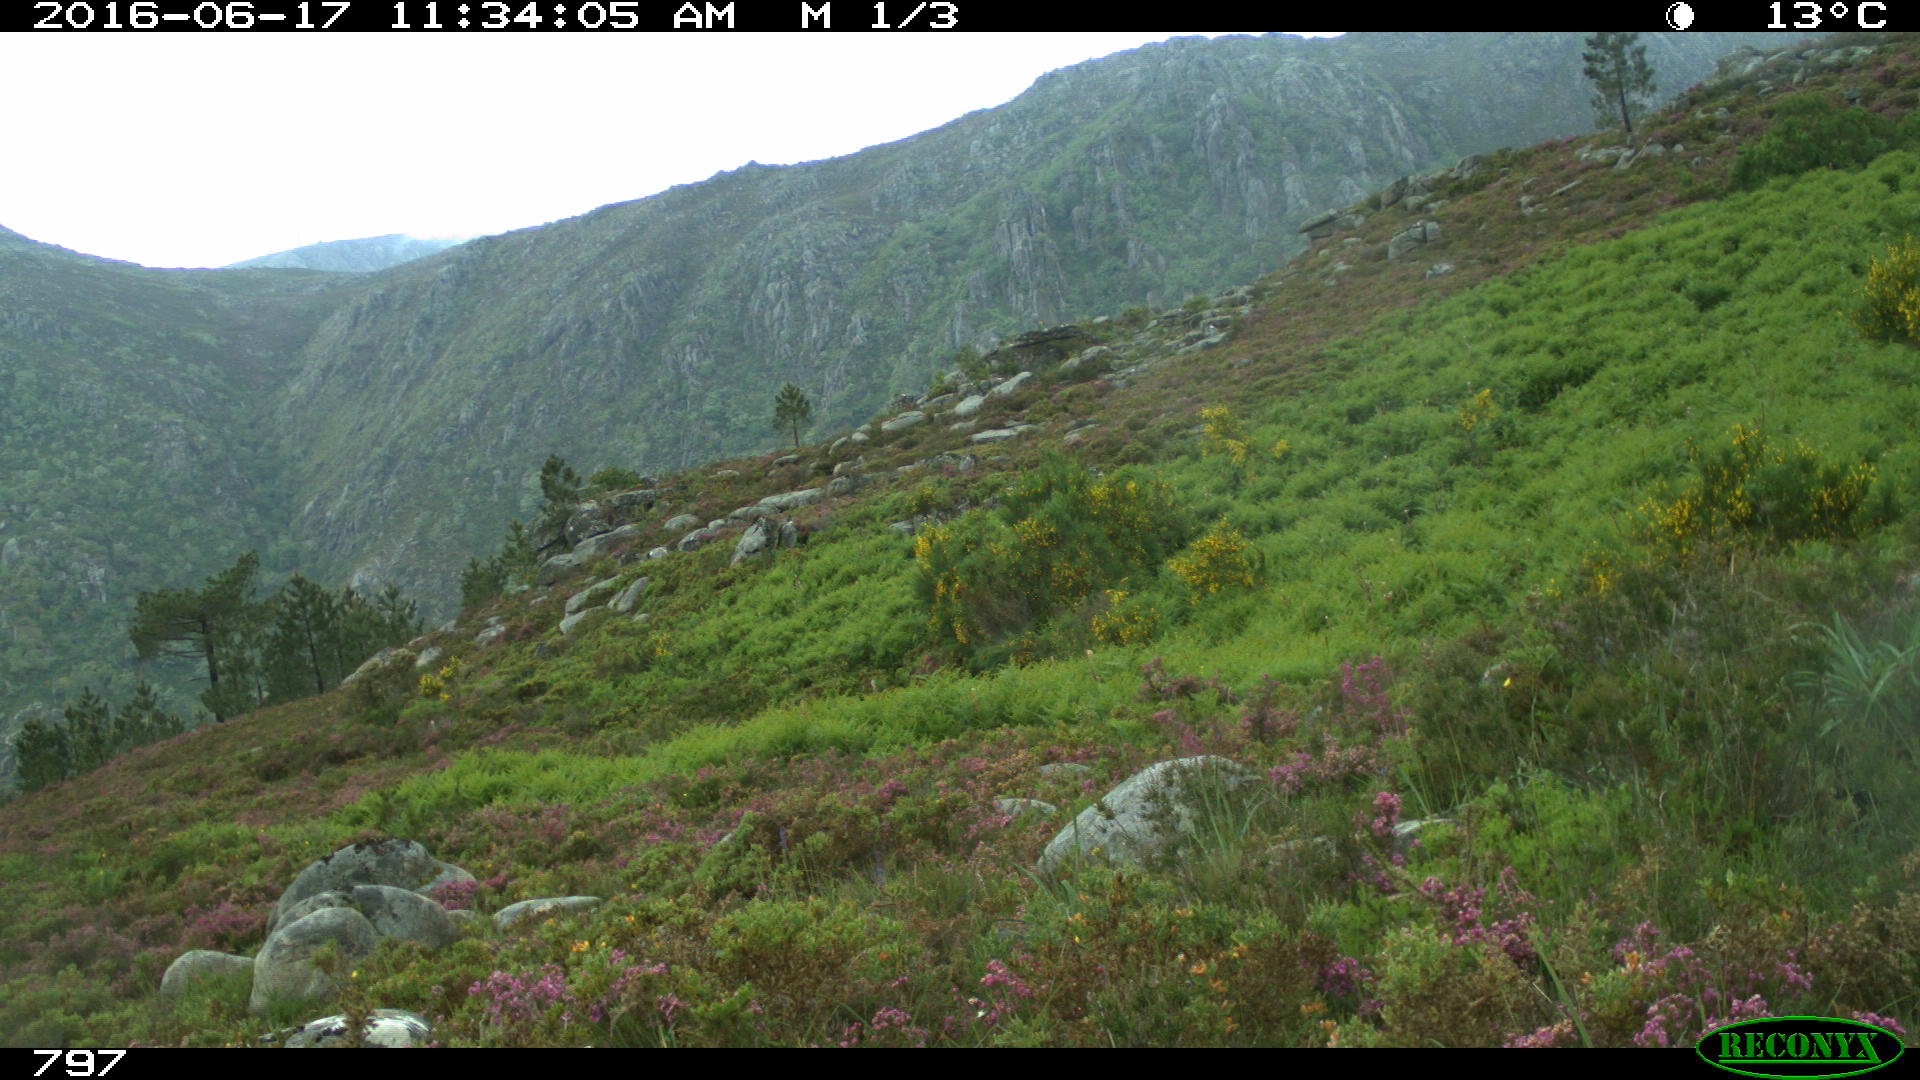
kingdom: Animalia
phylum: Chordata
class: Mammalia
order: Perissodactyla
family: Equidae
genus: Equus
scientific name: Equus caballus
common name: Horse
